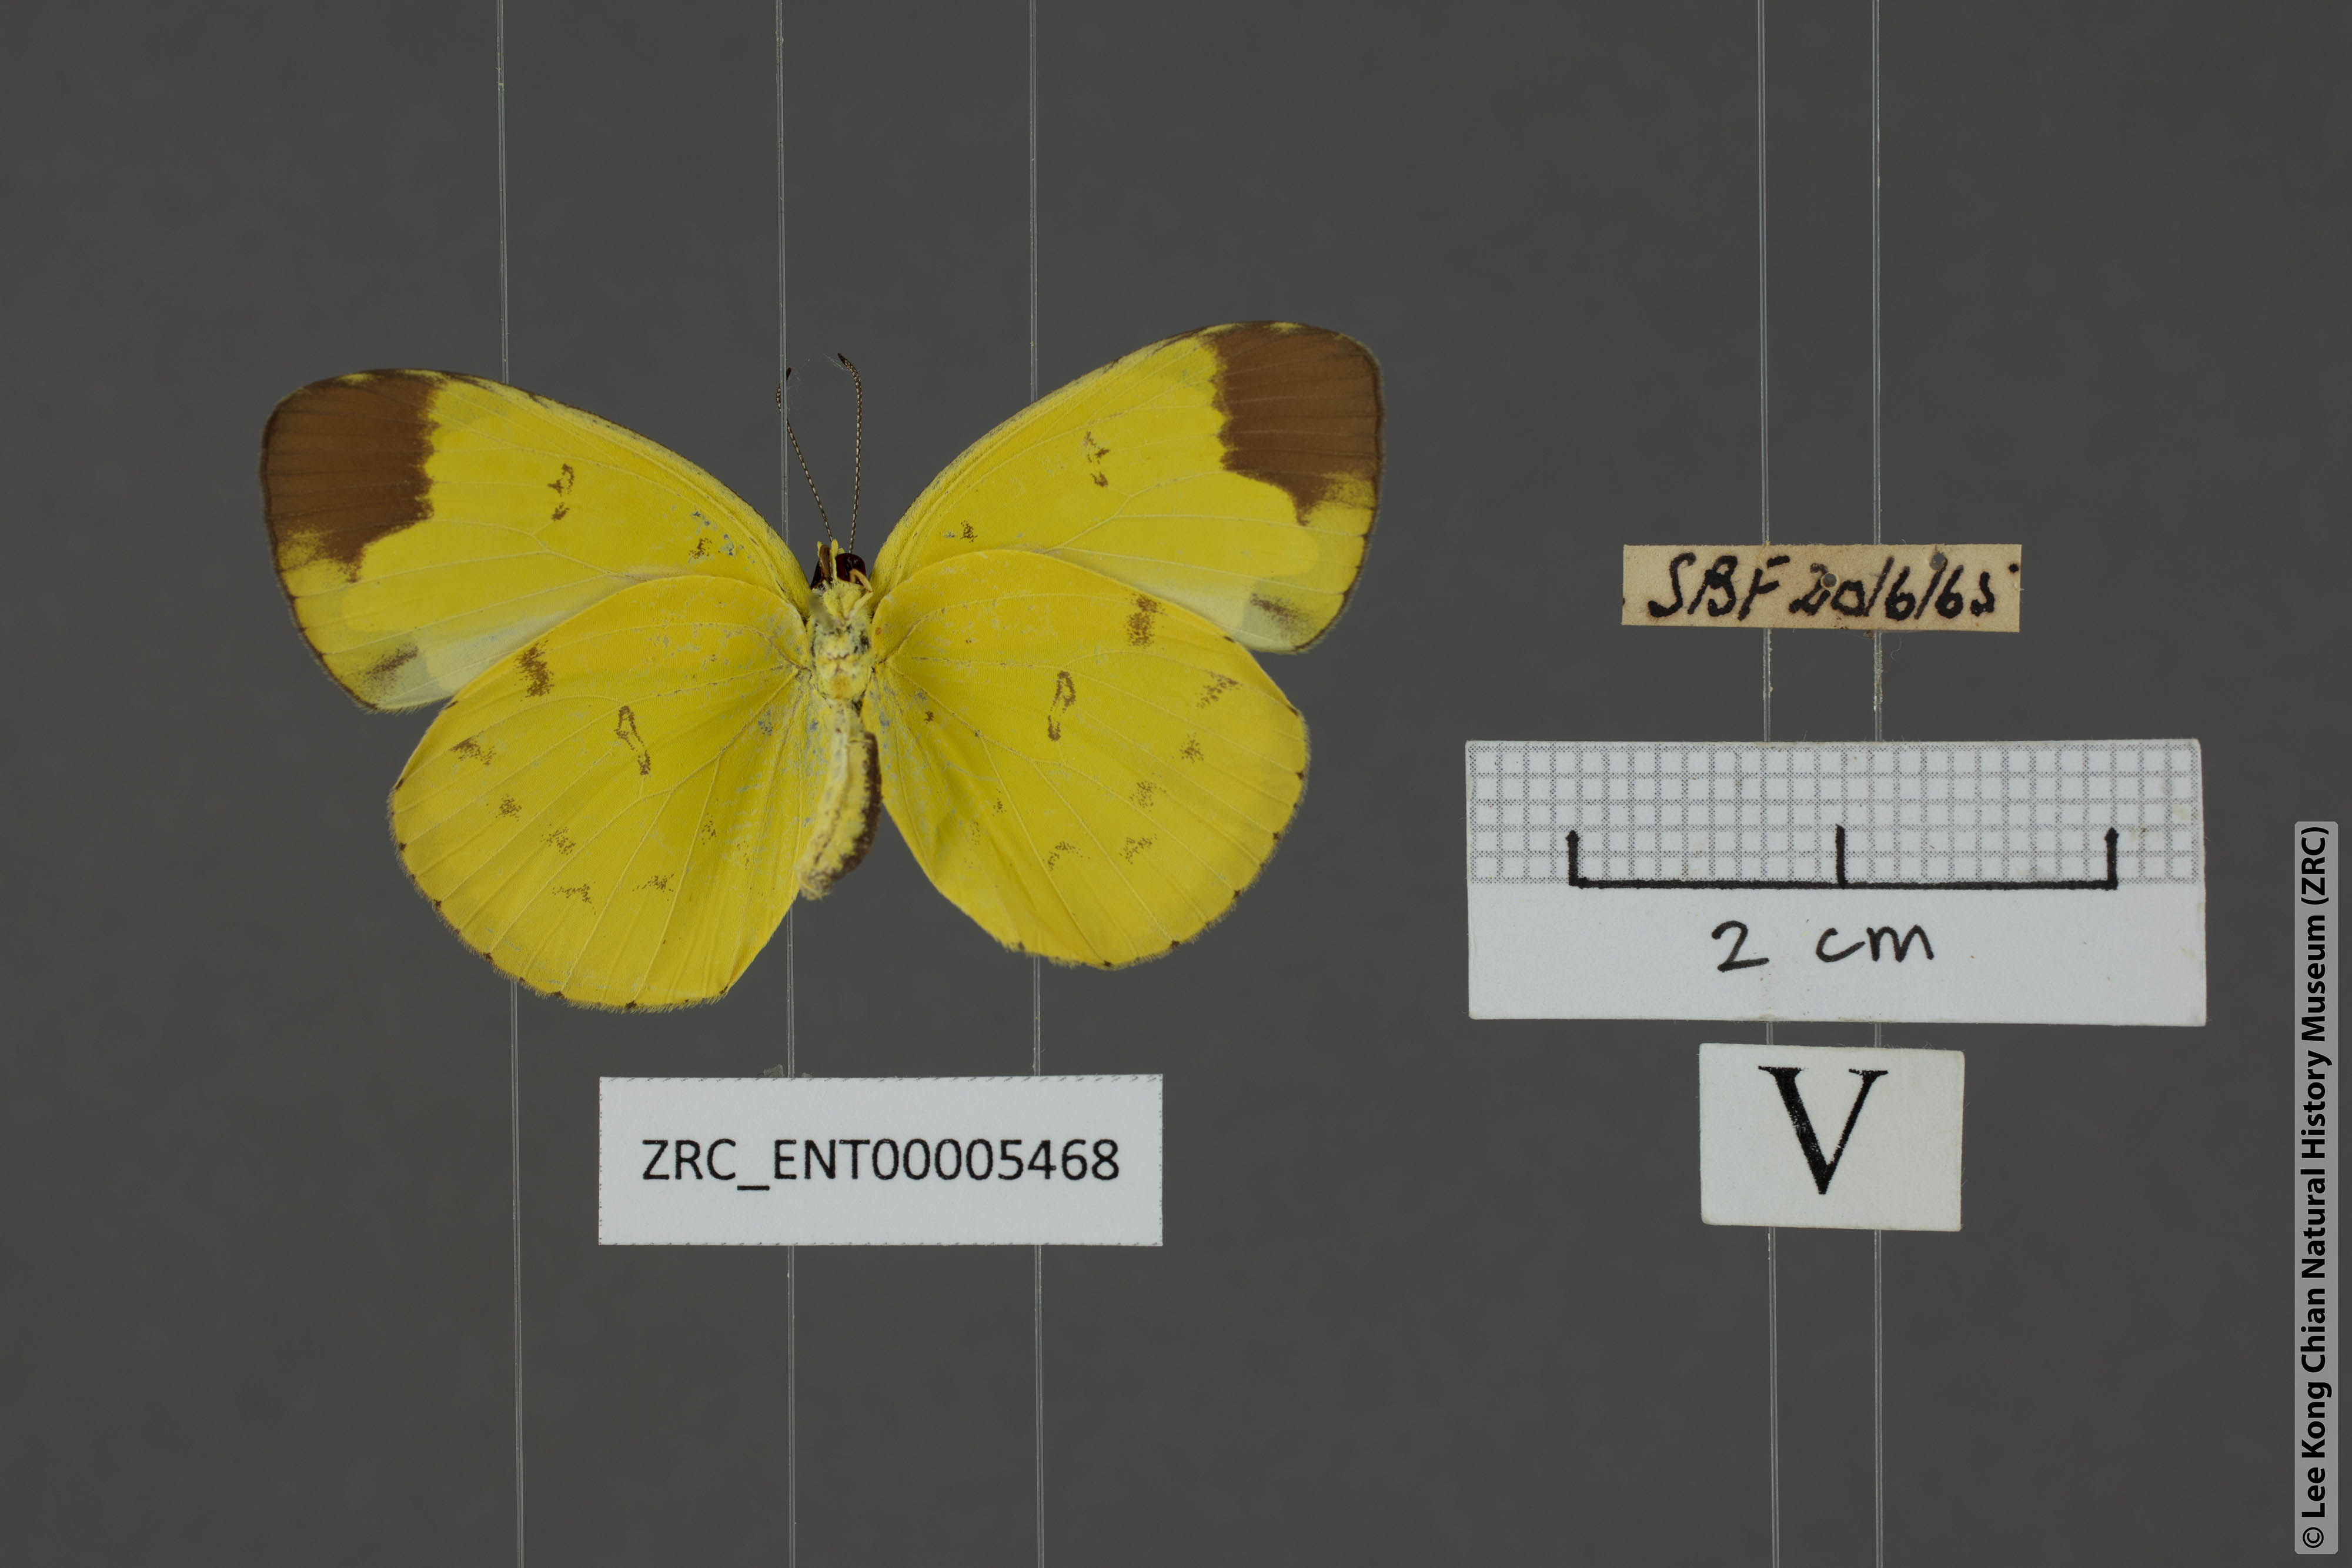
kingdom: Animalia
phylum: Arthropoda
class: Insecta
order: Lepidoptera
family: Pieridae
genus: Eurema
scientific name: Eurema sari
